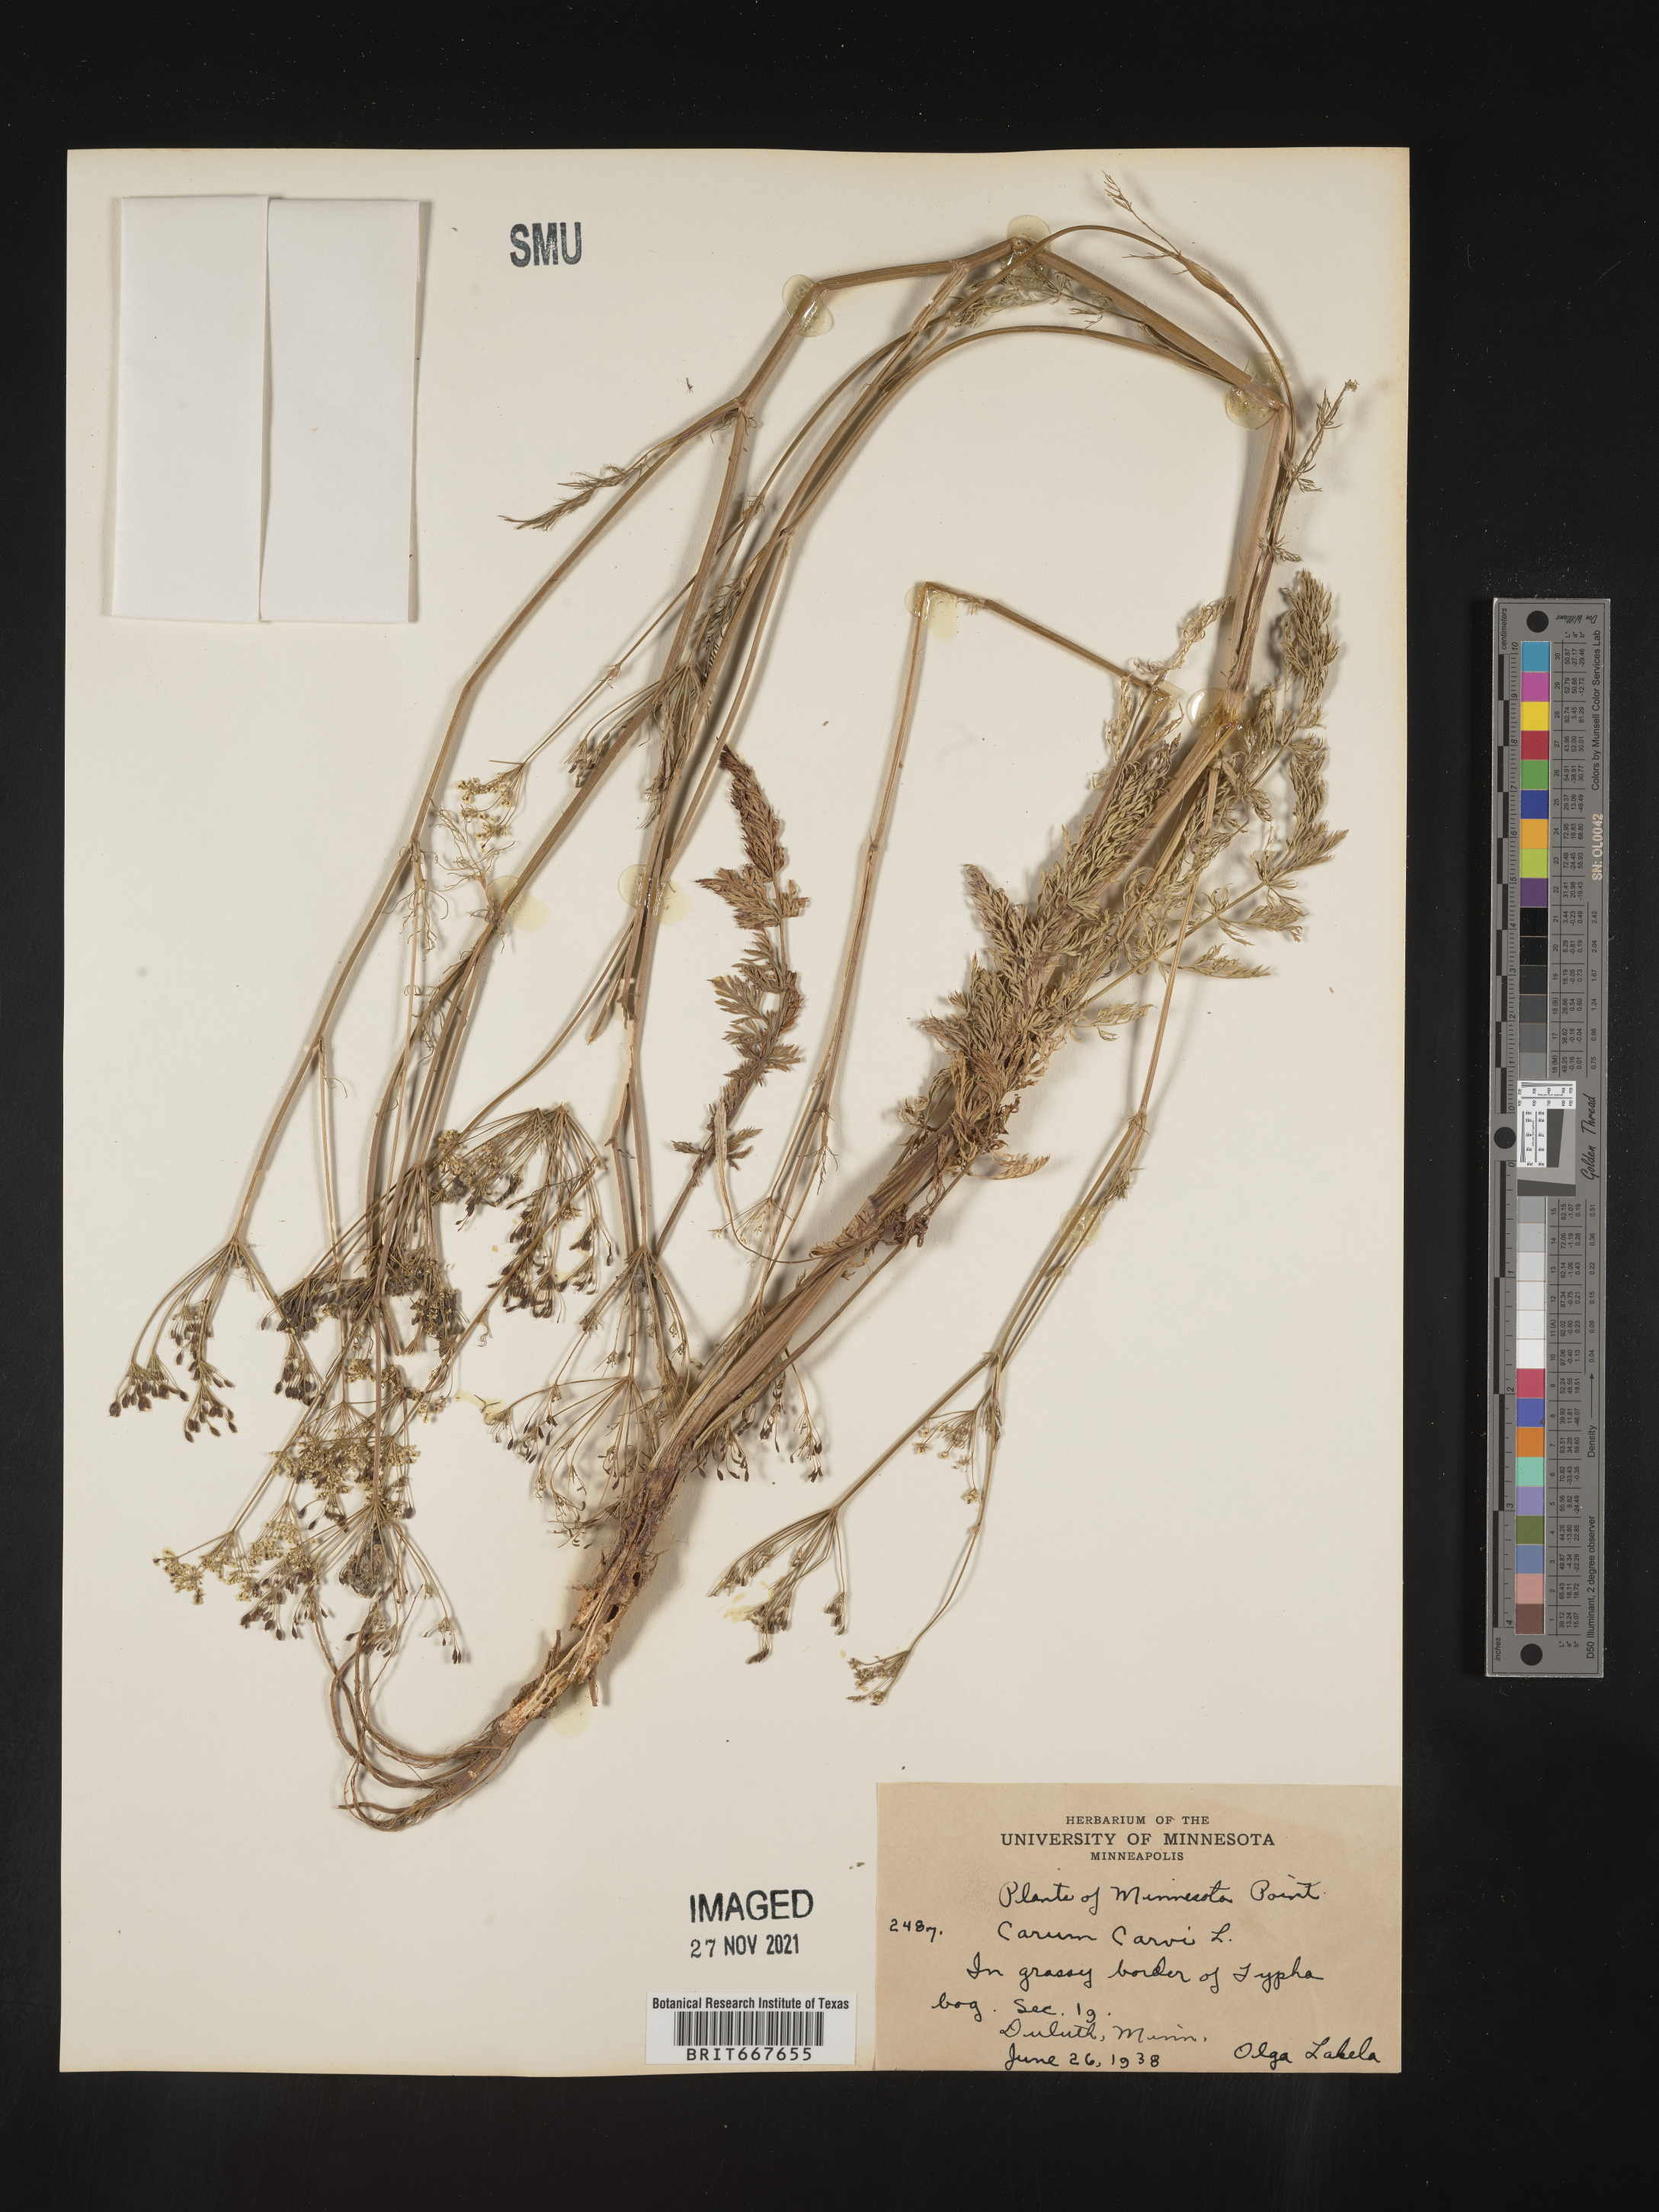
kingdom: Plantae
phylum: Tracheophyta
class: Magnoliopsida
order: Apiales
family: Apiaceae
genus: Carum
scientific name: Carum
